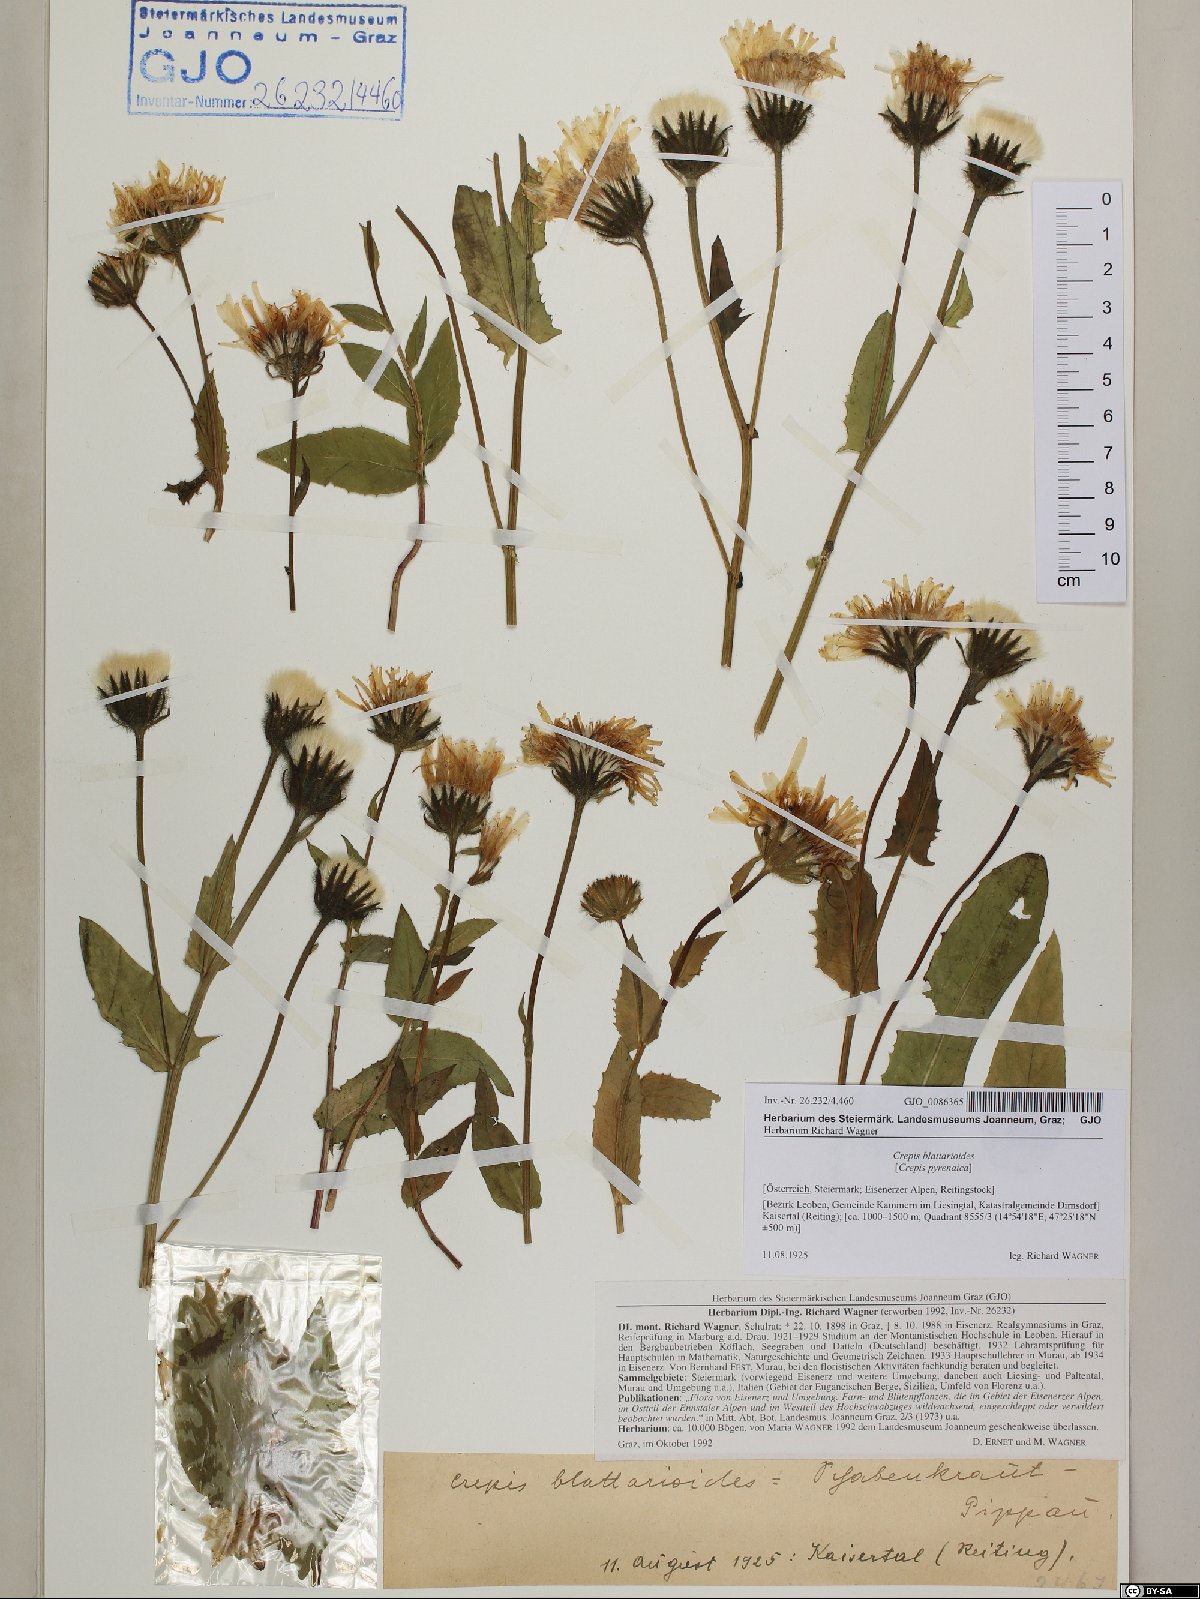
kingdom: Plantae
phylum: Tracheophyta
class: Magnoliopsida
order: Asterales
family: Asteraceae
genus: Crepis
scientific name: Crepis blattarioides
